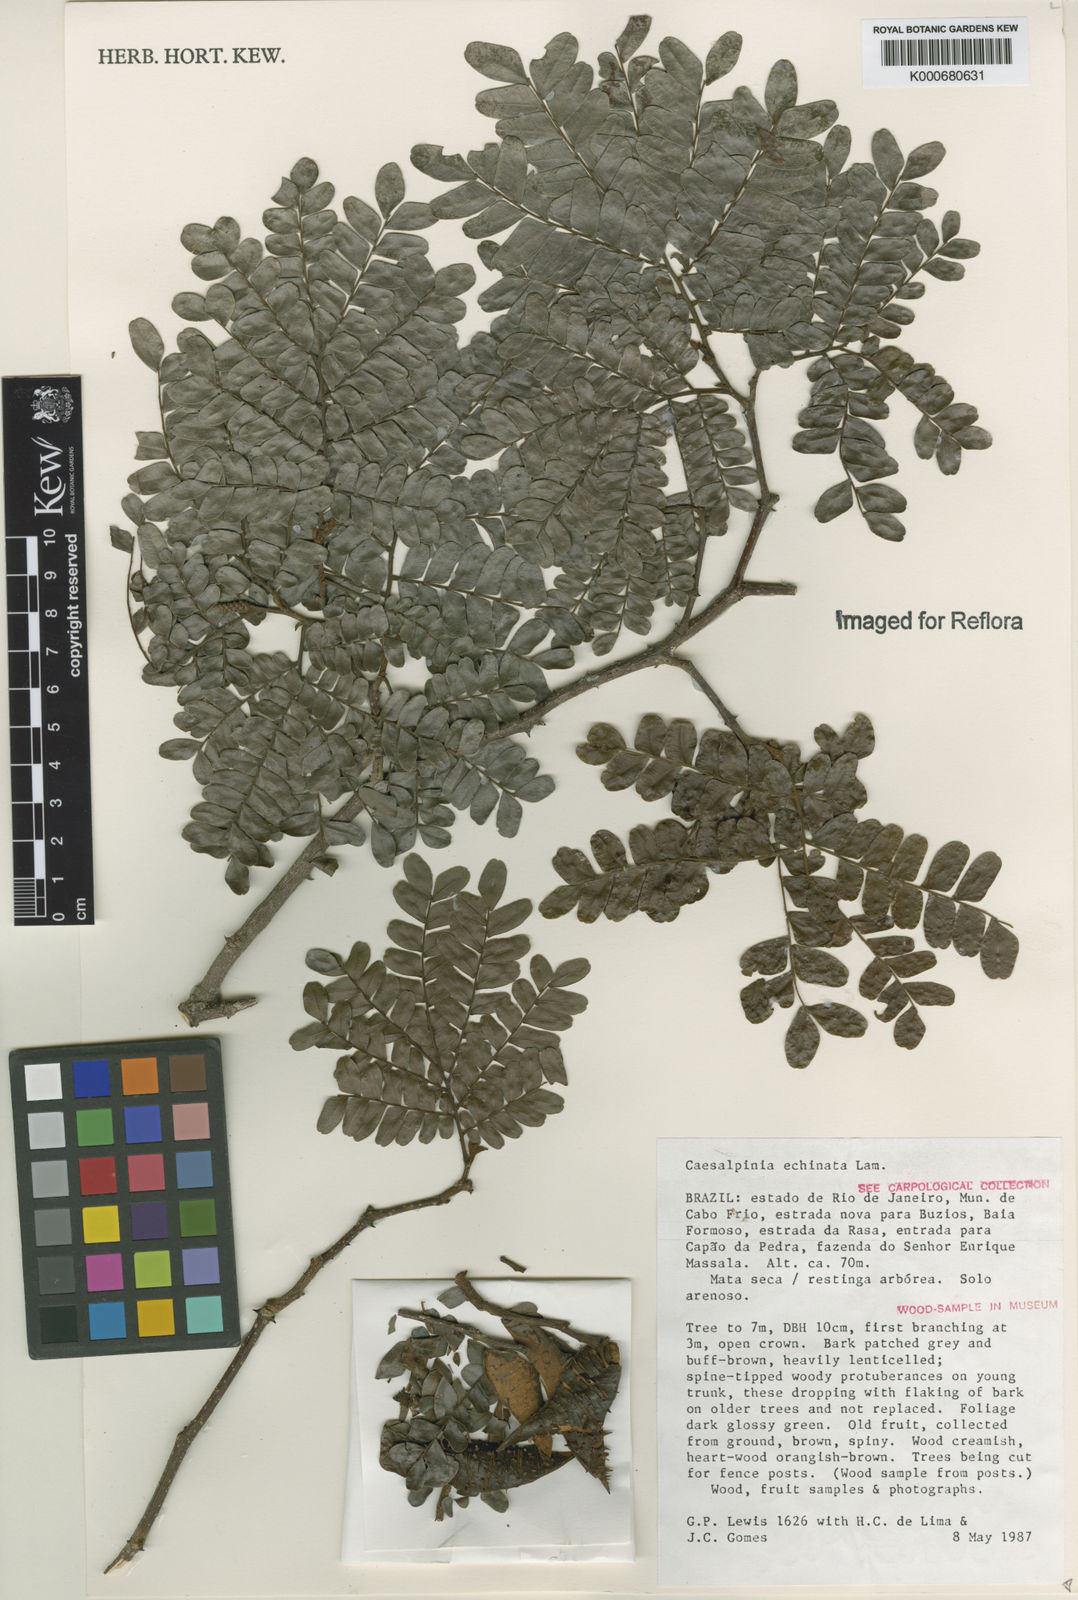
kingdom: Plantae
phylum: Tracheophyta
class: Magnoliopsida
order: Fabales
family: Fabaceae
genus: Paubrasilia
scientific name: Paubrasilia echinata
